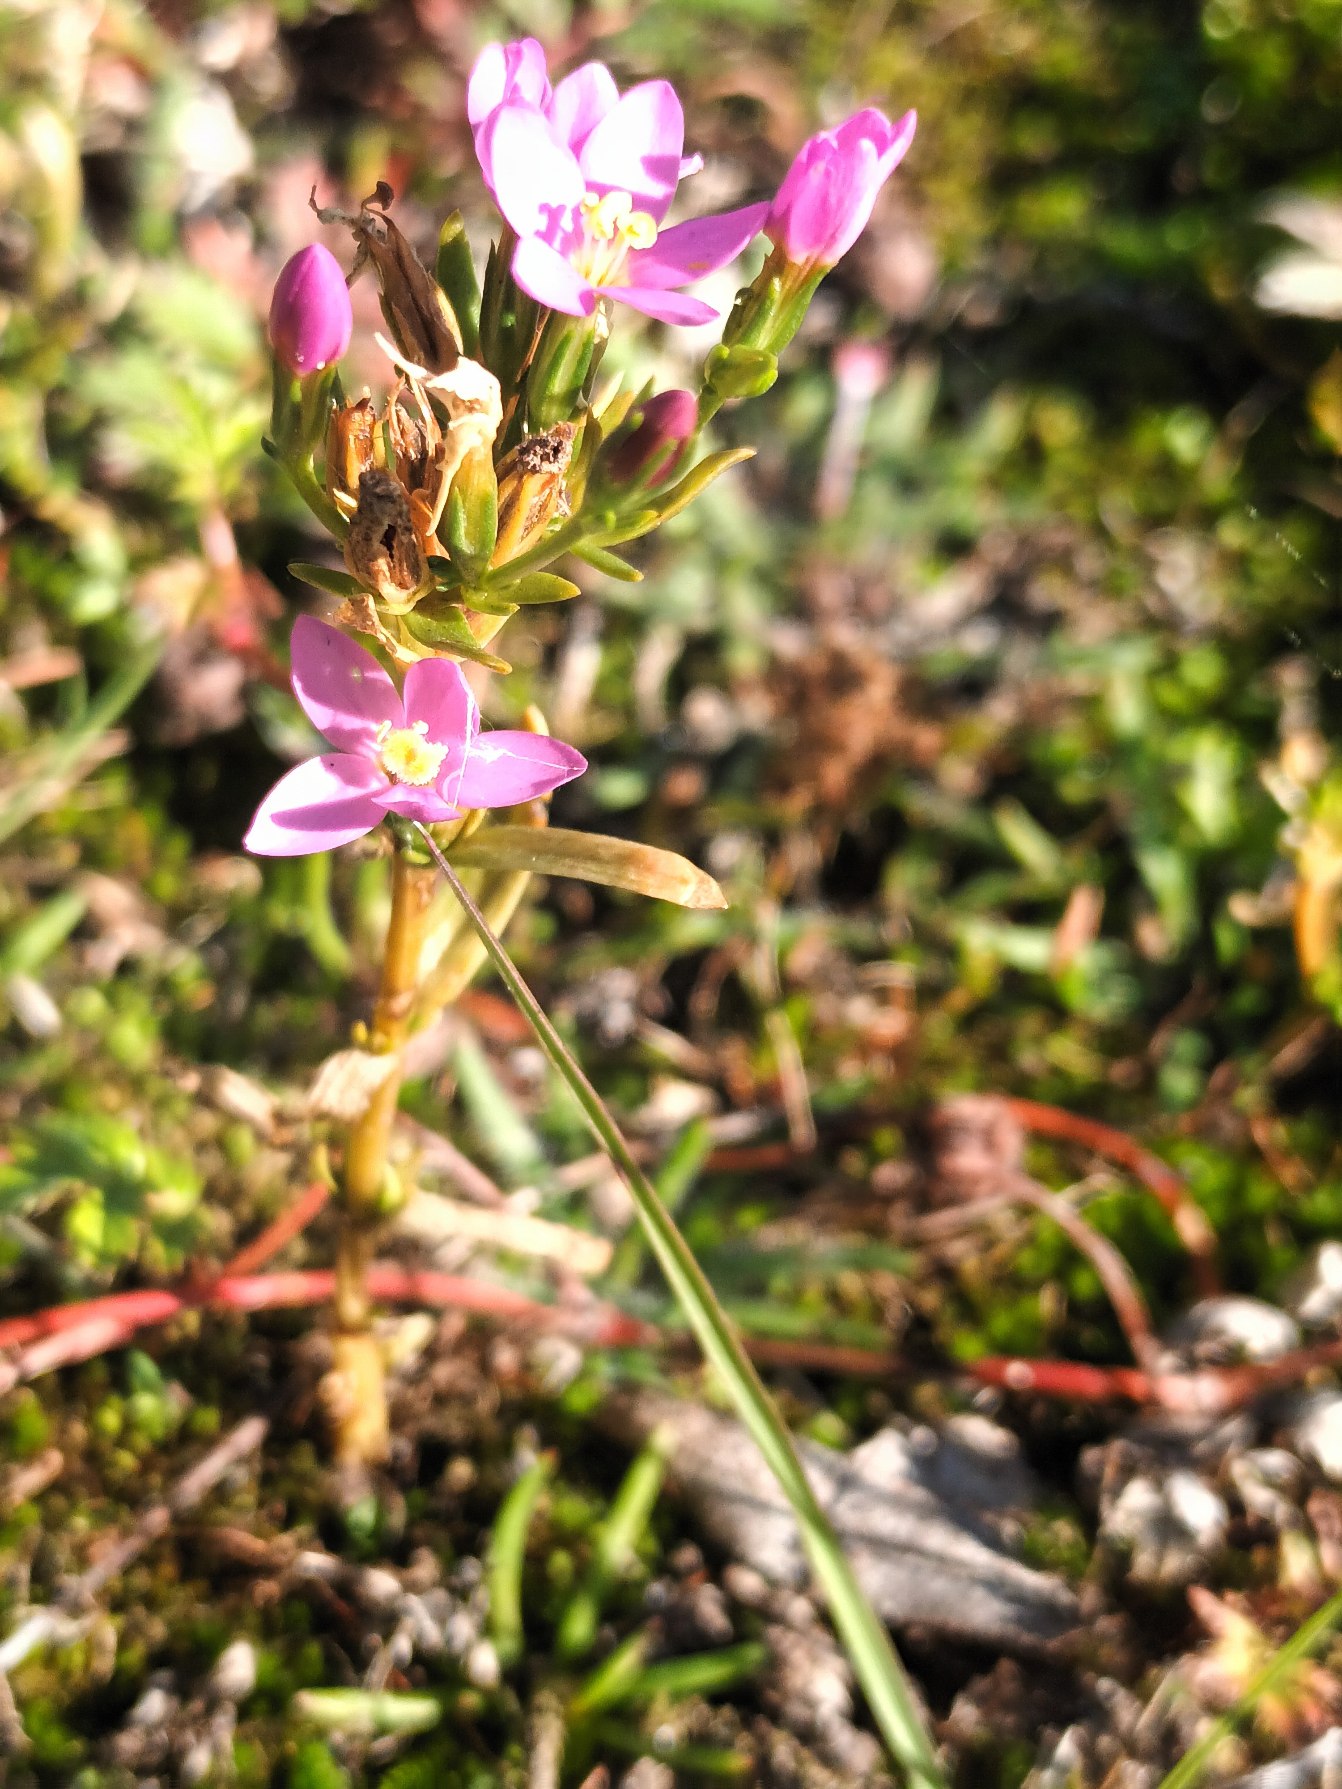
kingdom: Plantae
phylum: Tracheophyta
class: Magnoliopsida
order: Gentianales
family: Gentianaceae
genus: Centaurium
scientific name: Centaurium littorale
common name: Strand-tusindgylden
